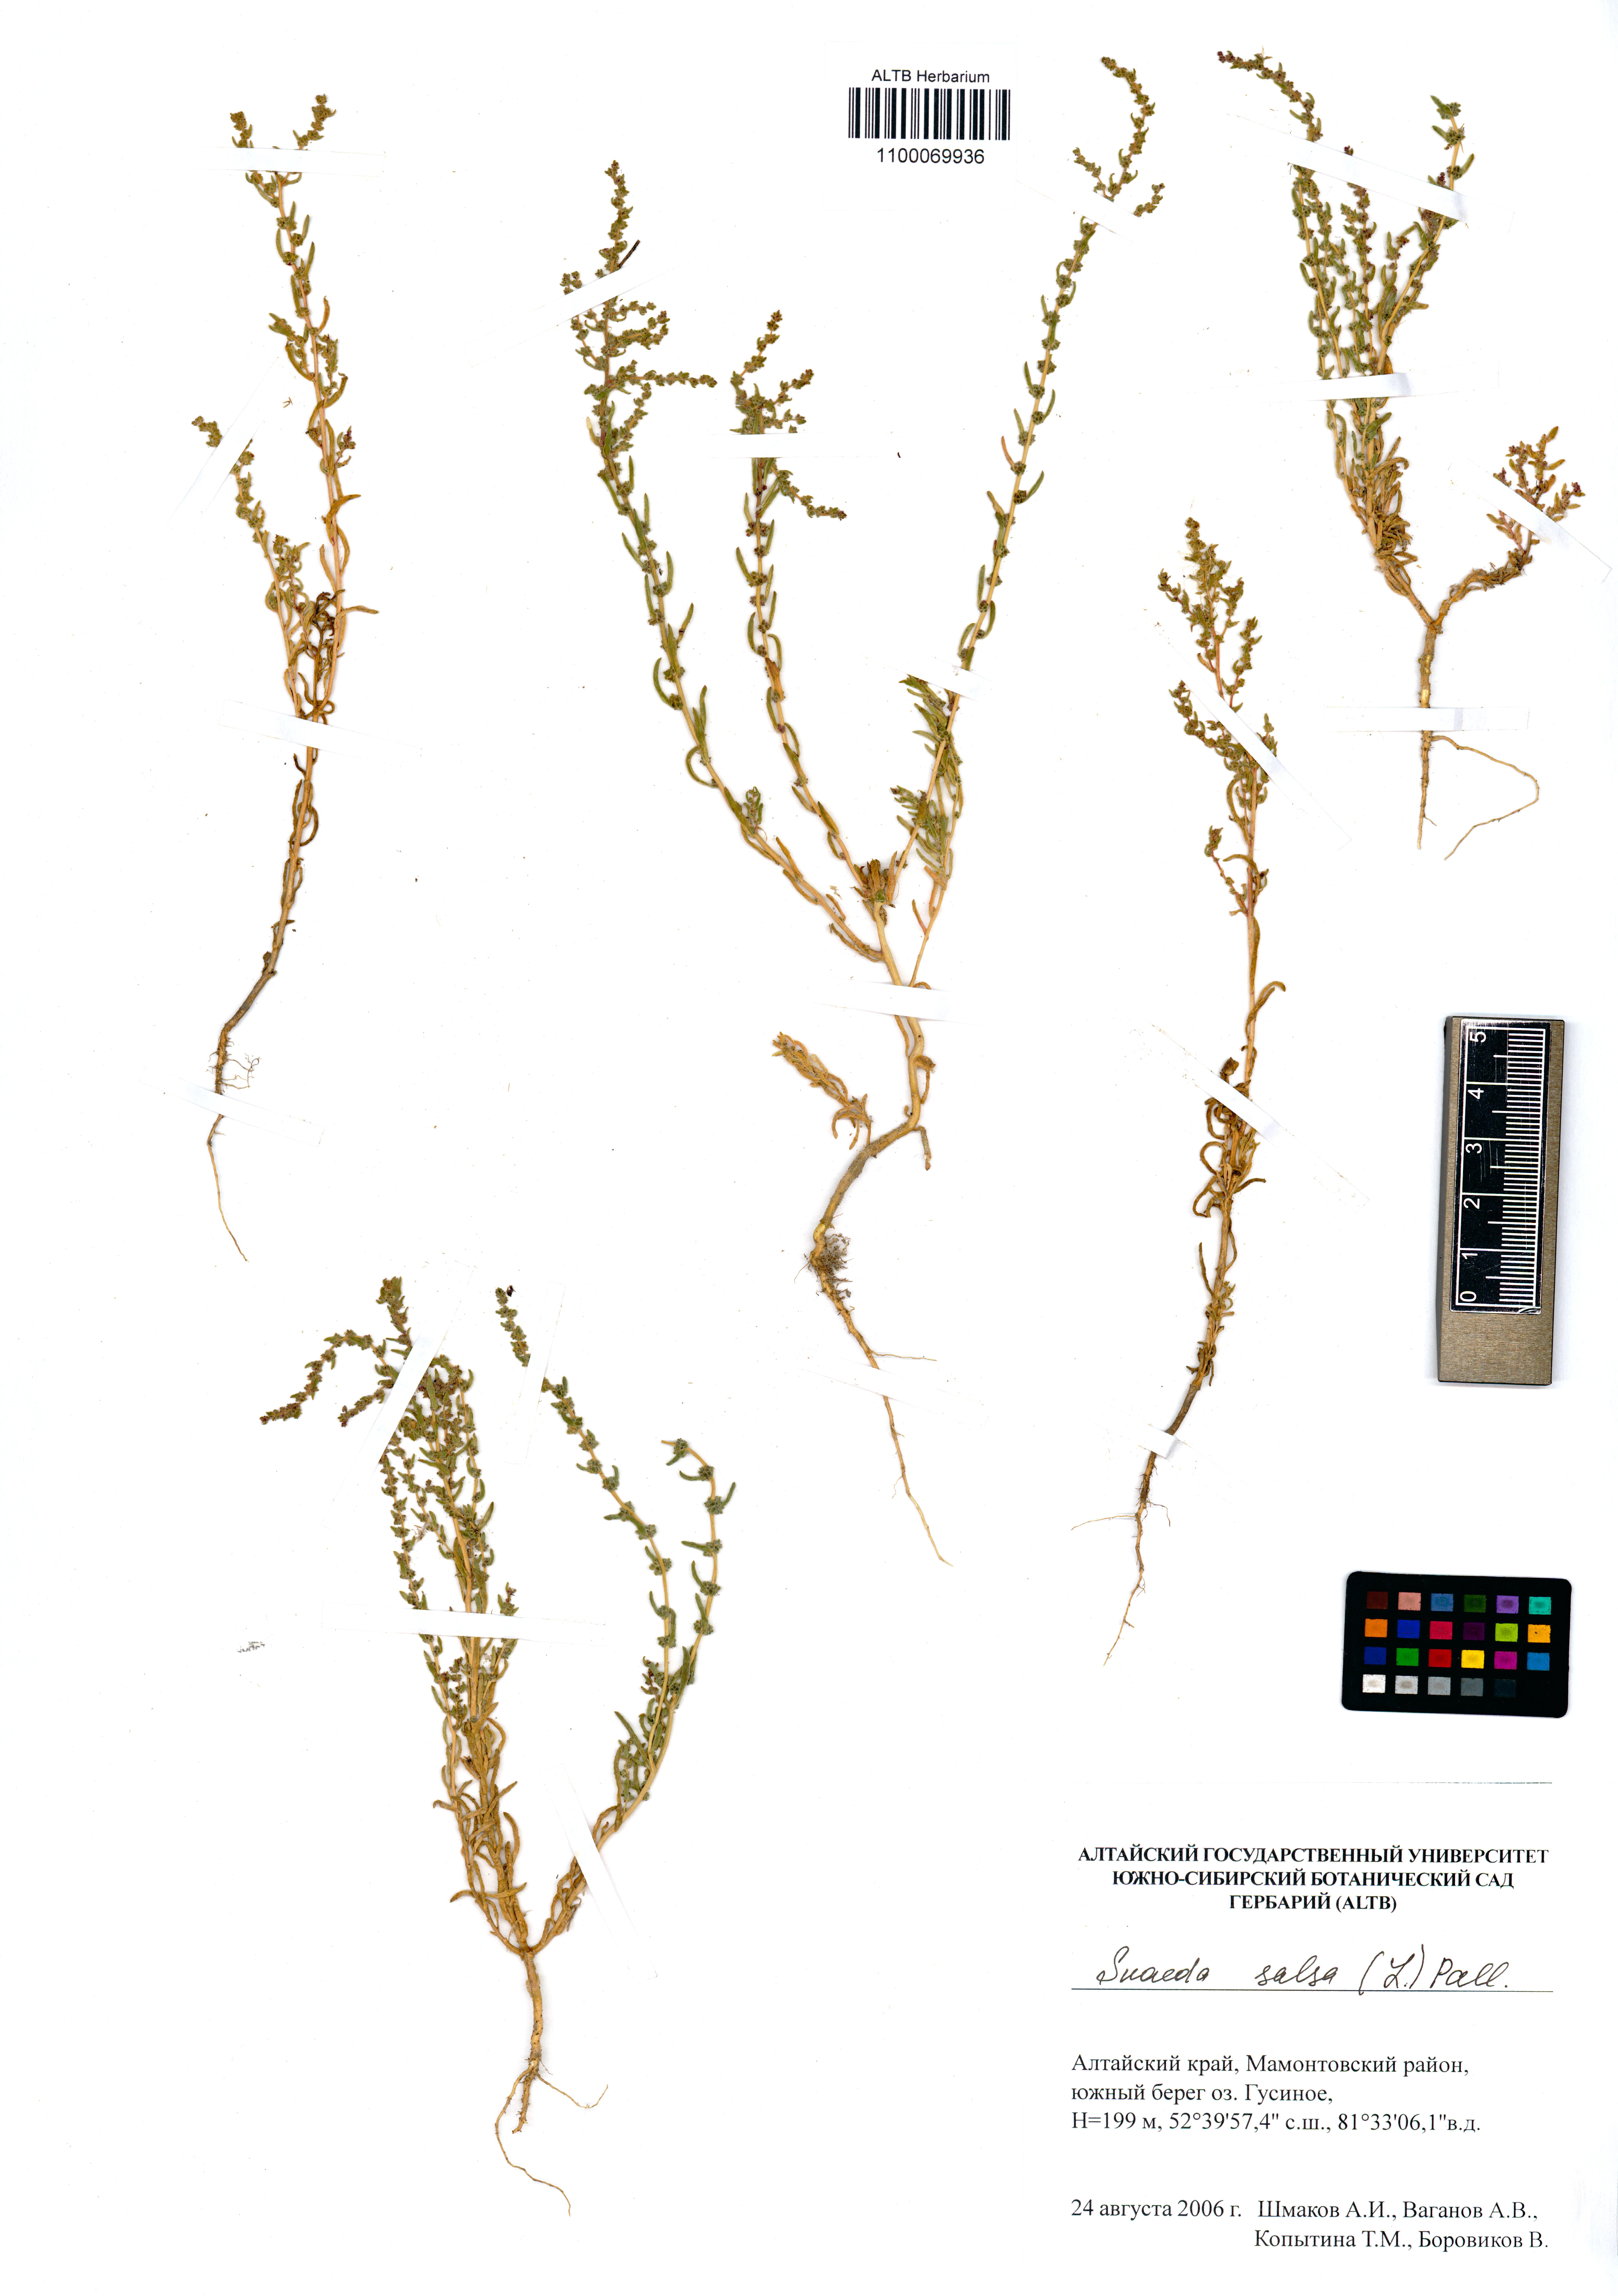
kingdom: Plantae
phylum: Tracheophyta
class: Magnoliopsida
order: Caryophyllales
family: Amaranthaceae
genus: Suaeda
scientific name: Suaeda salsa
